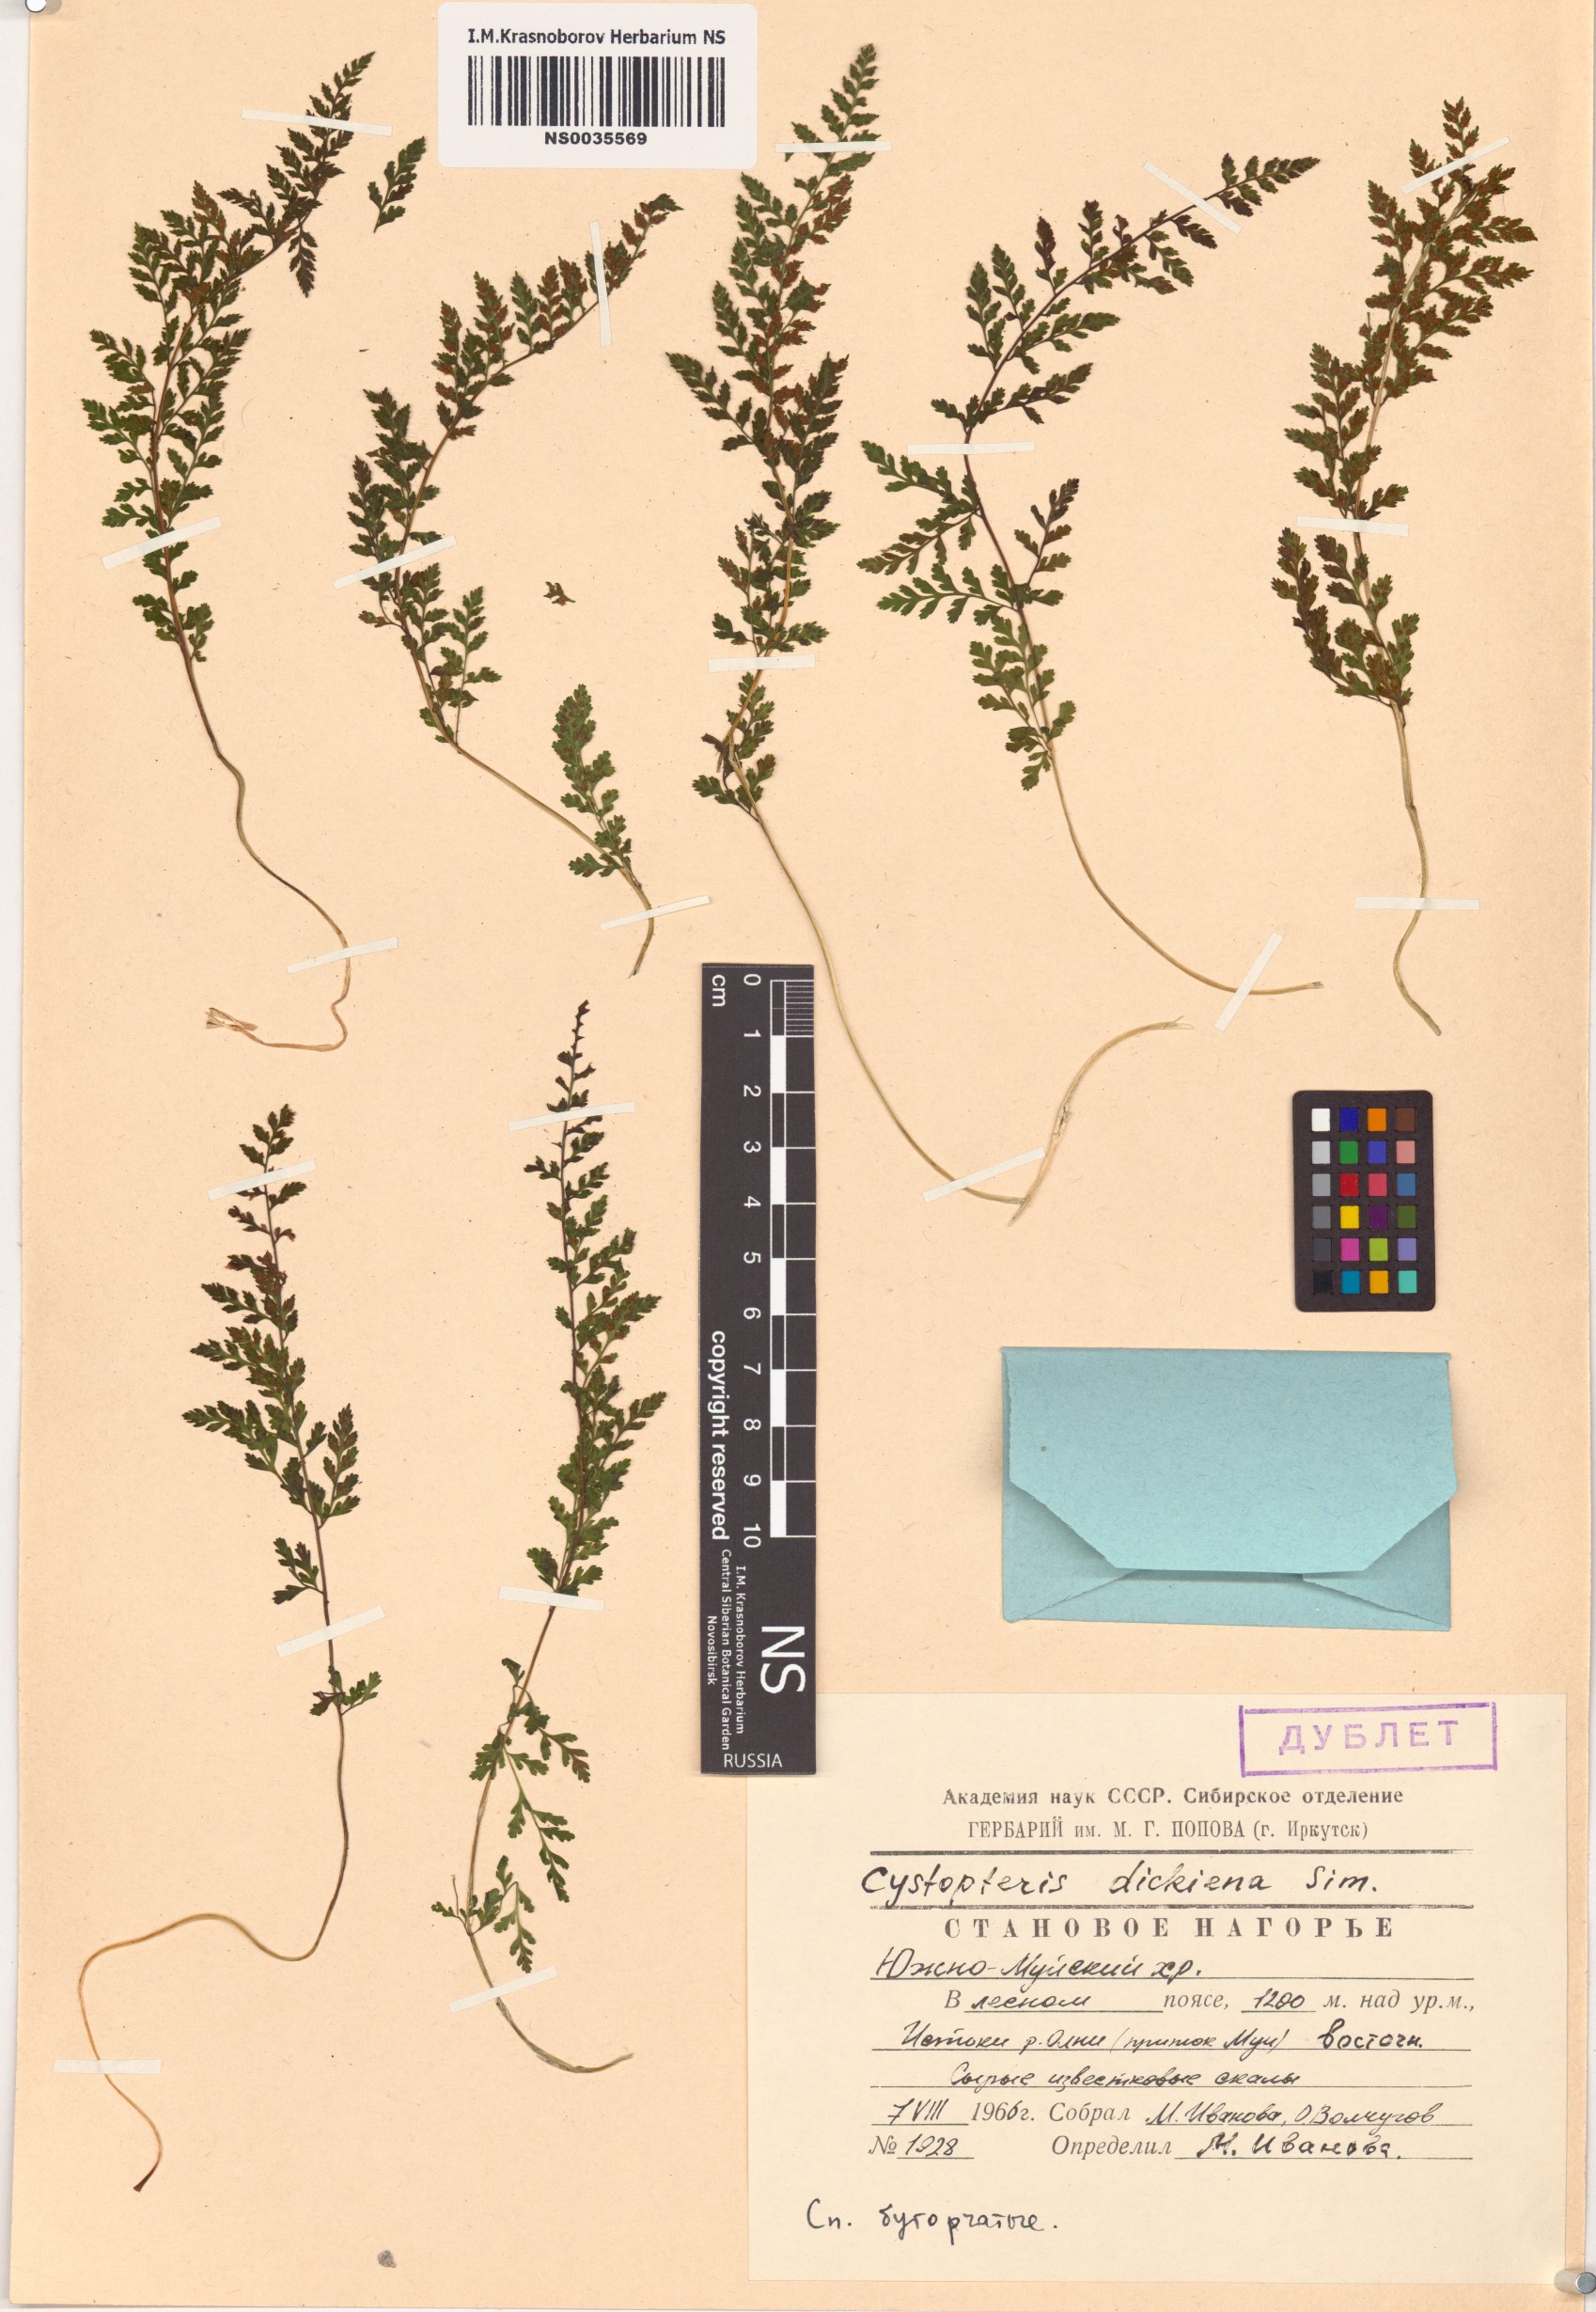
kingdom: Plantae
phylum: Tracheophyta
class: Polypodiopsida
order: Polypodiales
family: Cystopteridaceae
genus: Cystopteris
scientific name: Cystopteris dickieana
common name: Dickie's bladder-fern
